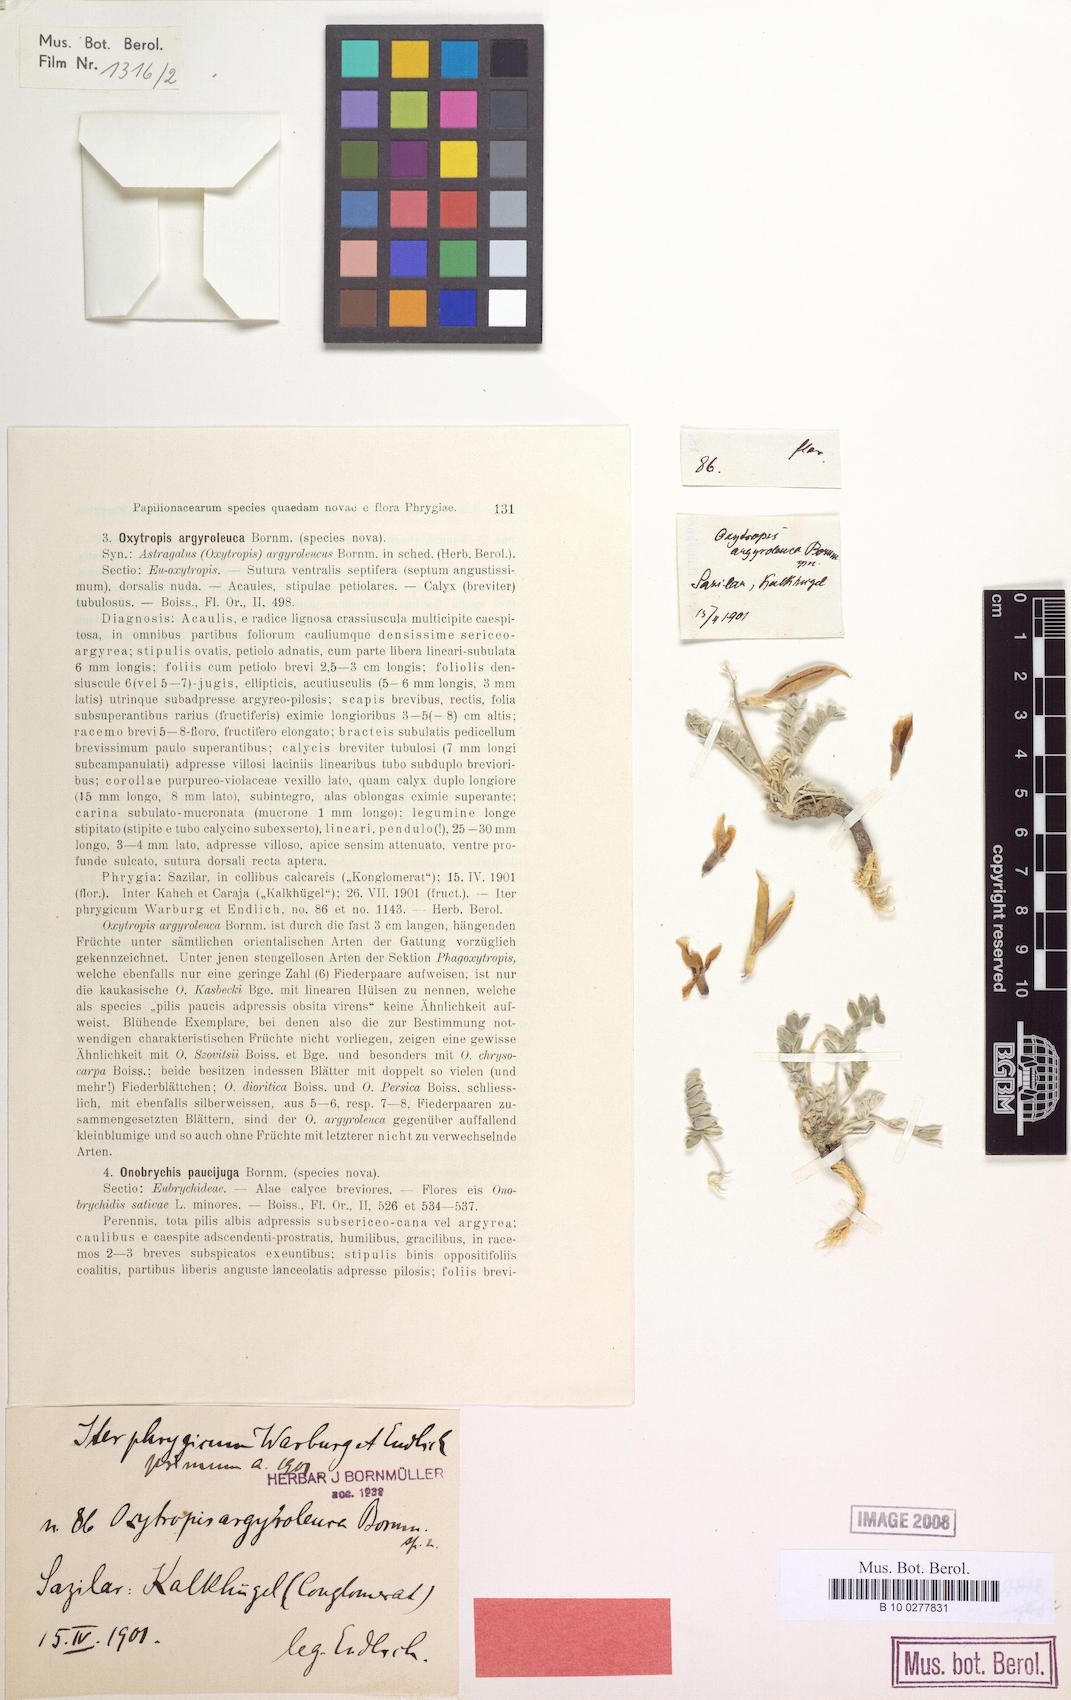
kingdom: Plantae
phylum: Tracheophyta
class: Magnoliopsida
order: Fabales
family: Fabaceae
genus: Oxytropis
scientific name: Oxytropis argyroleuca
